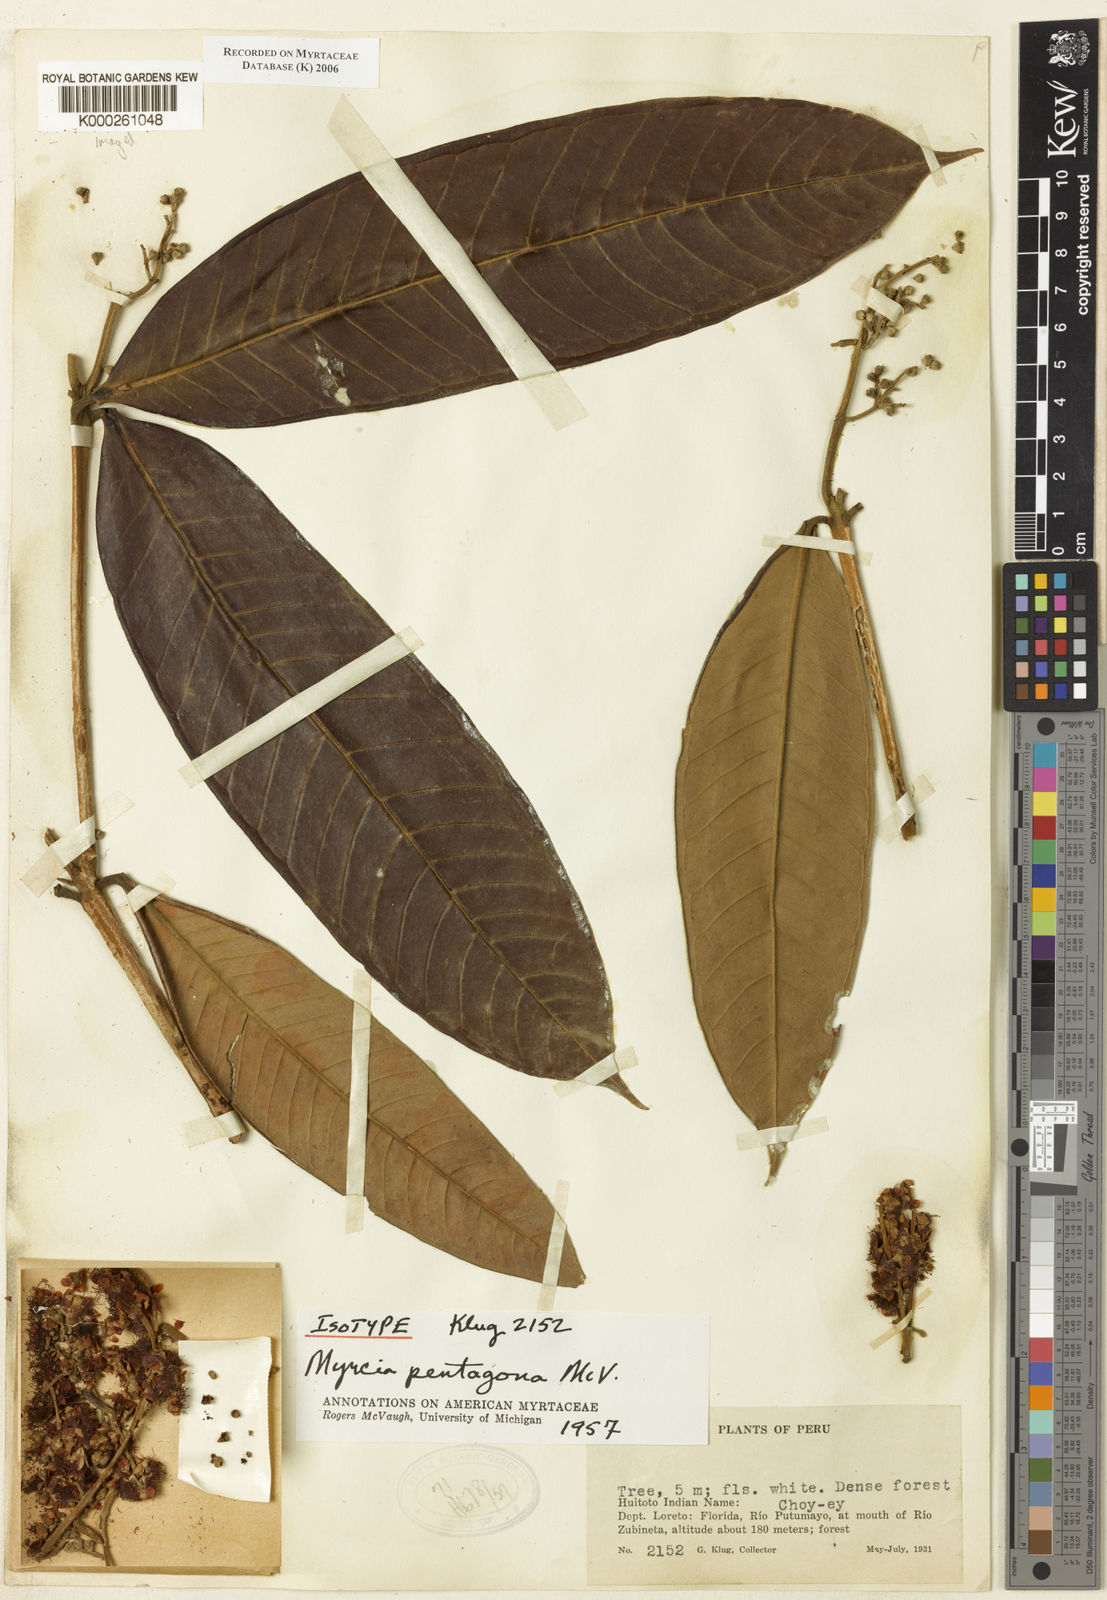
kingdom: Plantae
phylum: Tracheophyta
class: Magnoliopsida
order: Myrtales
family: Myrtaceae
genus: Myrcia
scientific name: Myrcia pentagona
